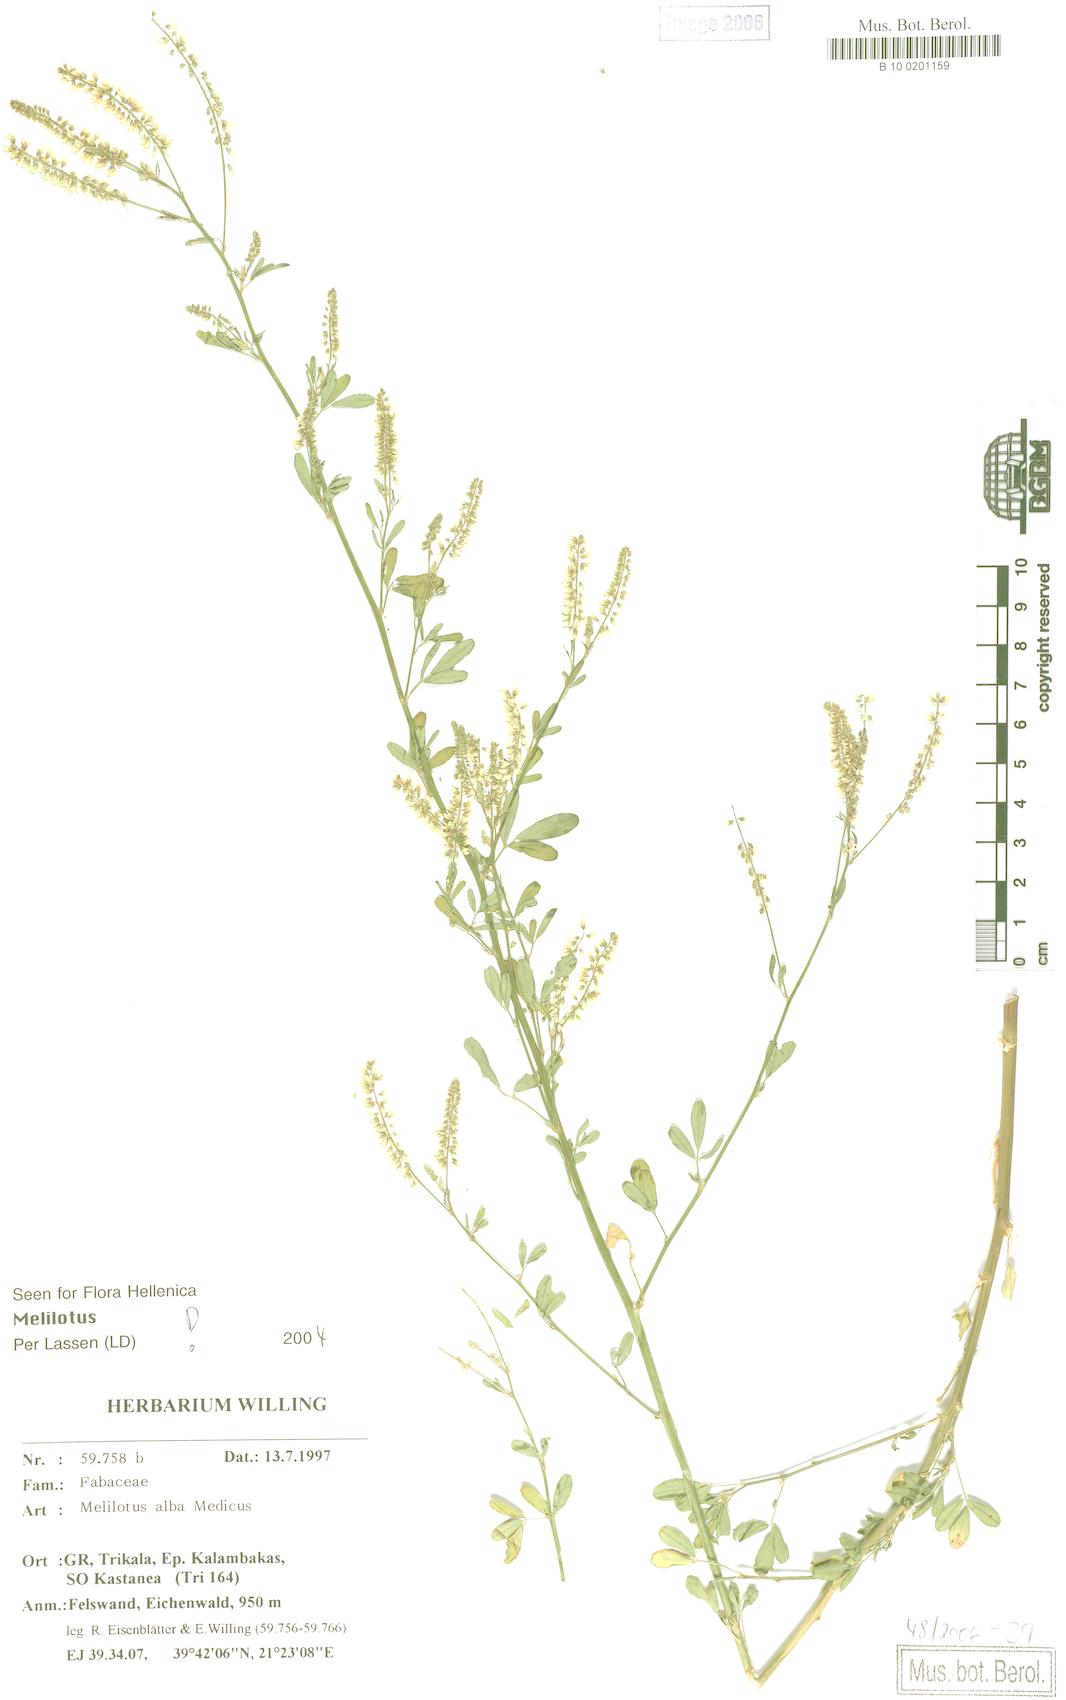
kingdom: Plantae
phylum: Tracheophyta
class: Magnoliopsida
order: Fabales
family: Fabaceae
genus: Melilotus
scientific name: Melilotus albus
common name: White melilot
